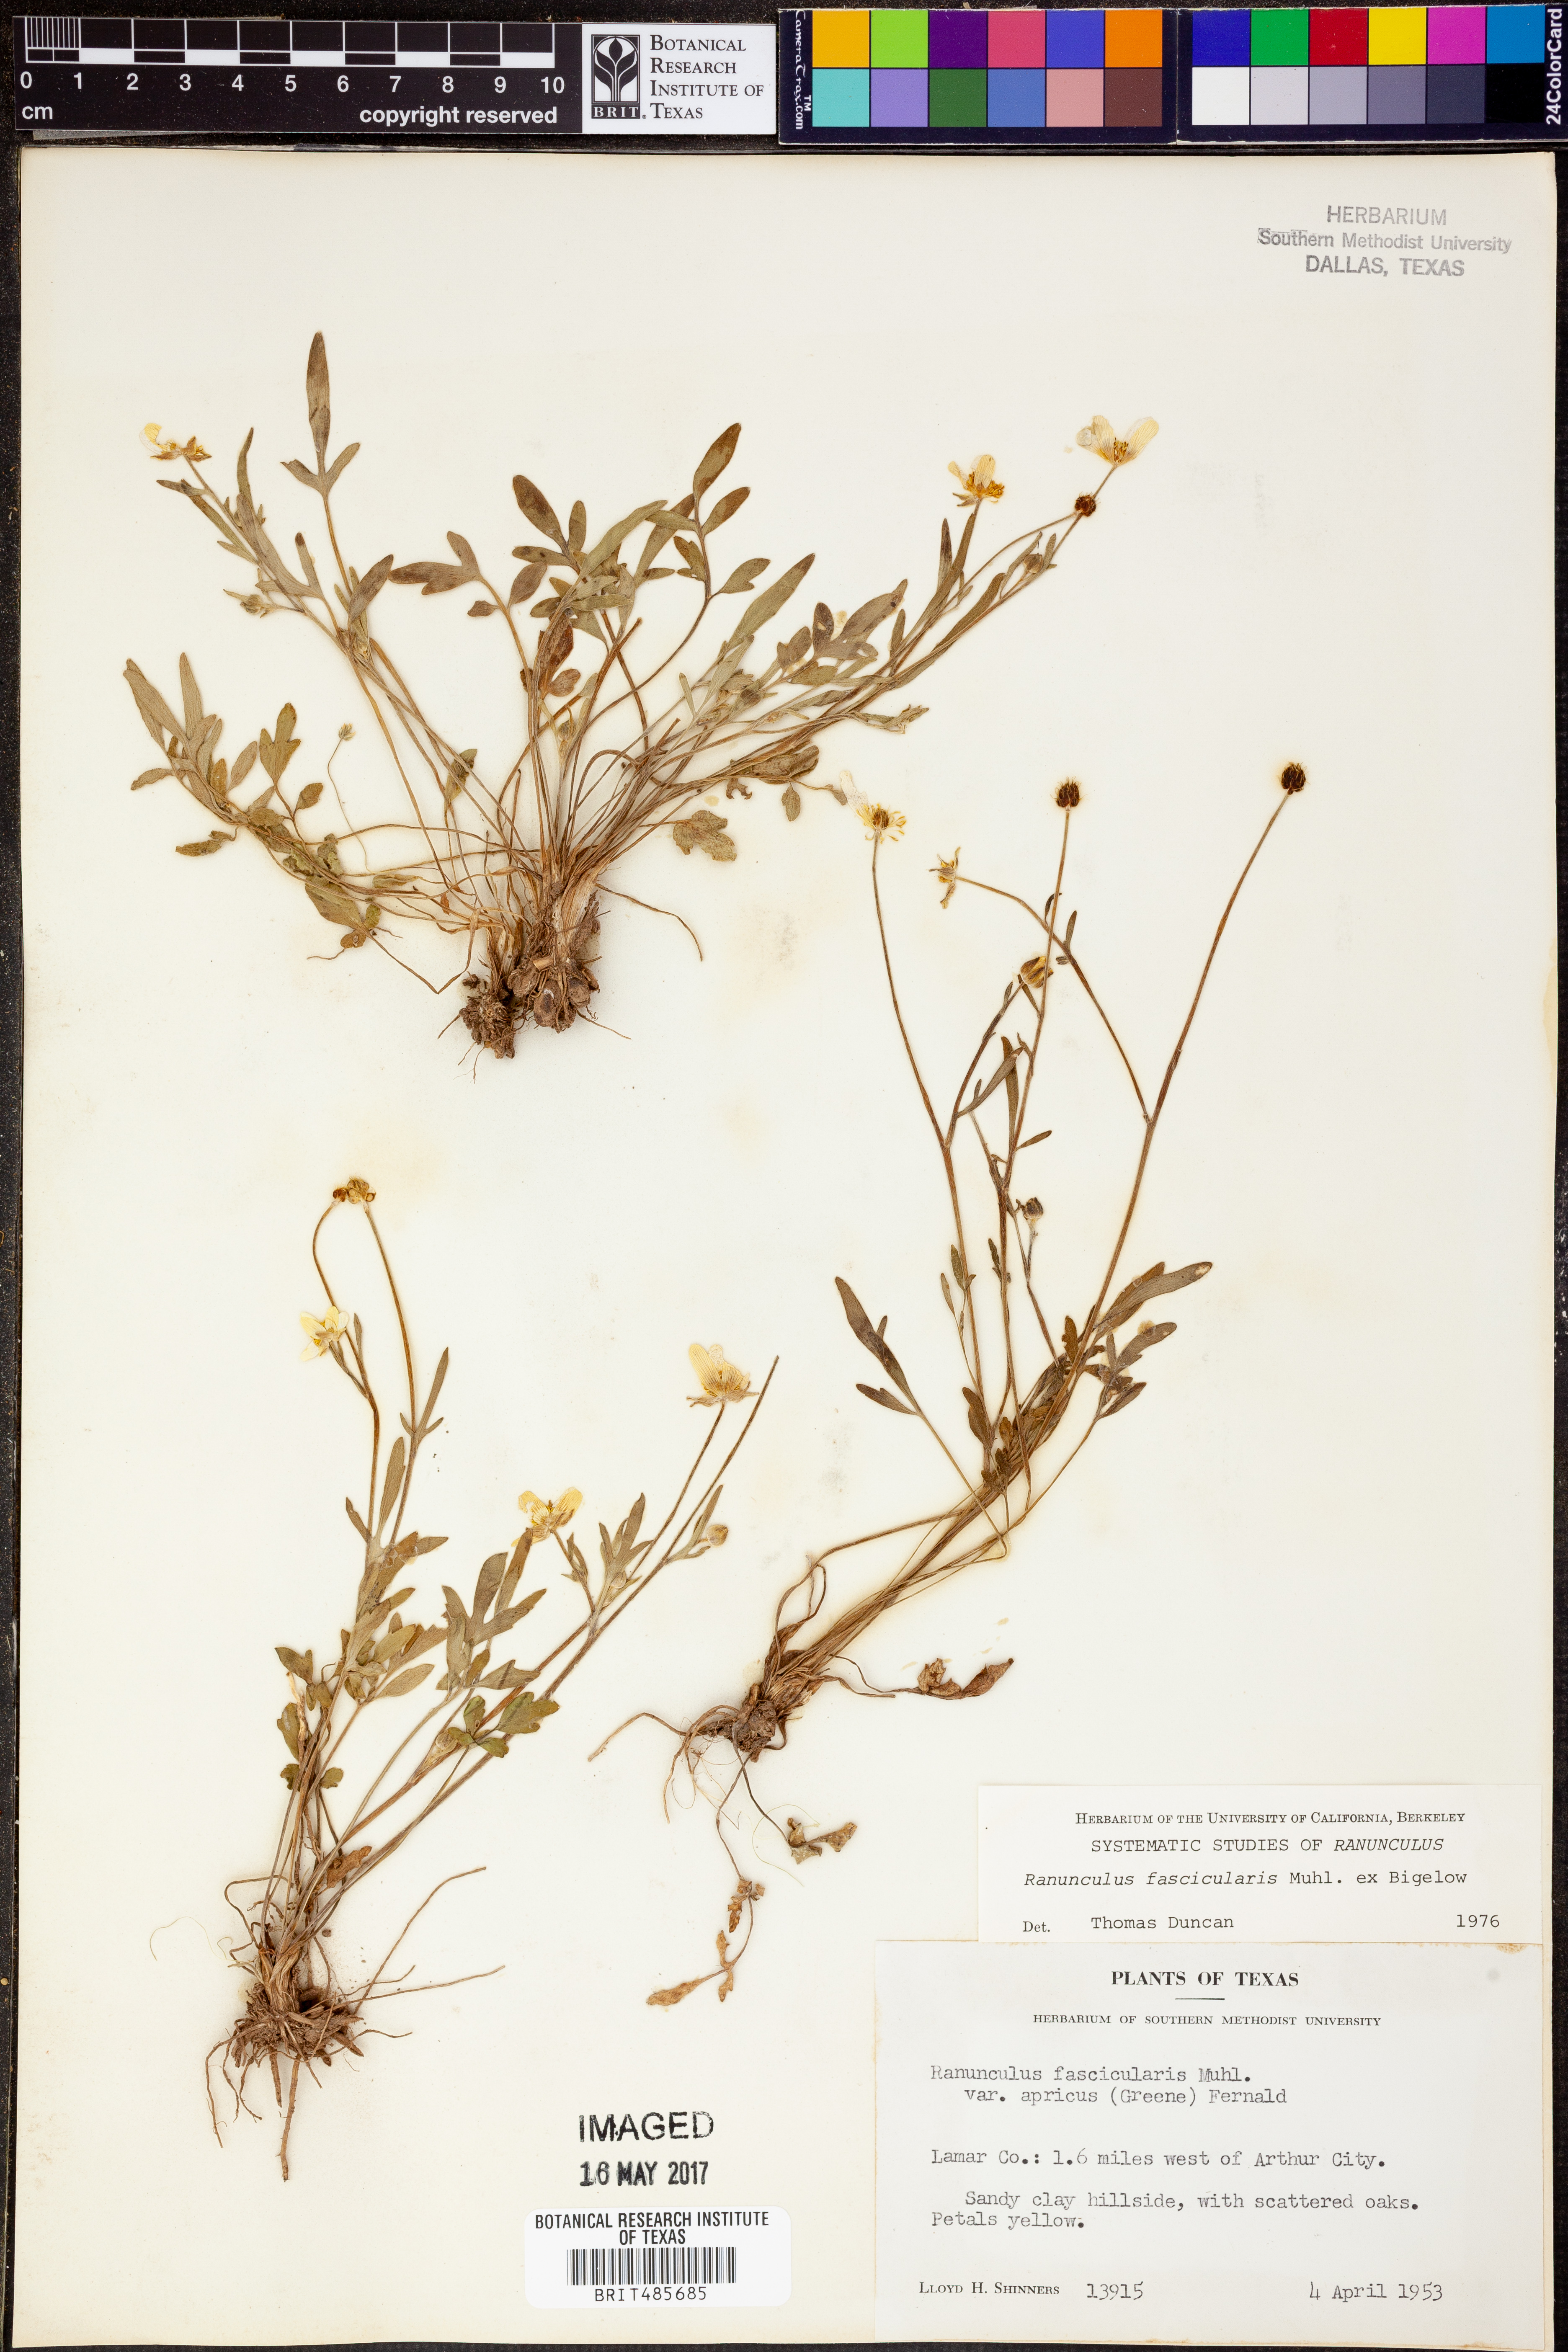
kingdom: Plantae
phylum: Tracheophyta
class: Magnoliopsida
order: Ranunculales
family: Ranunculaceae
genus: Ranunculus
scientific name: Ranunculus fascicularis
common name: Early buttercup
